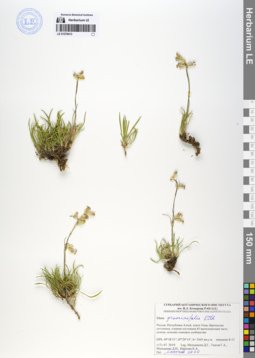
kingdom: Plantae
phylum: Tracheophyta
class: Magnoliopsida
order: Caryophyllales
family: Caryophyllaceae
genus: Silene
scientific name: Silene graminifolia
